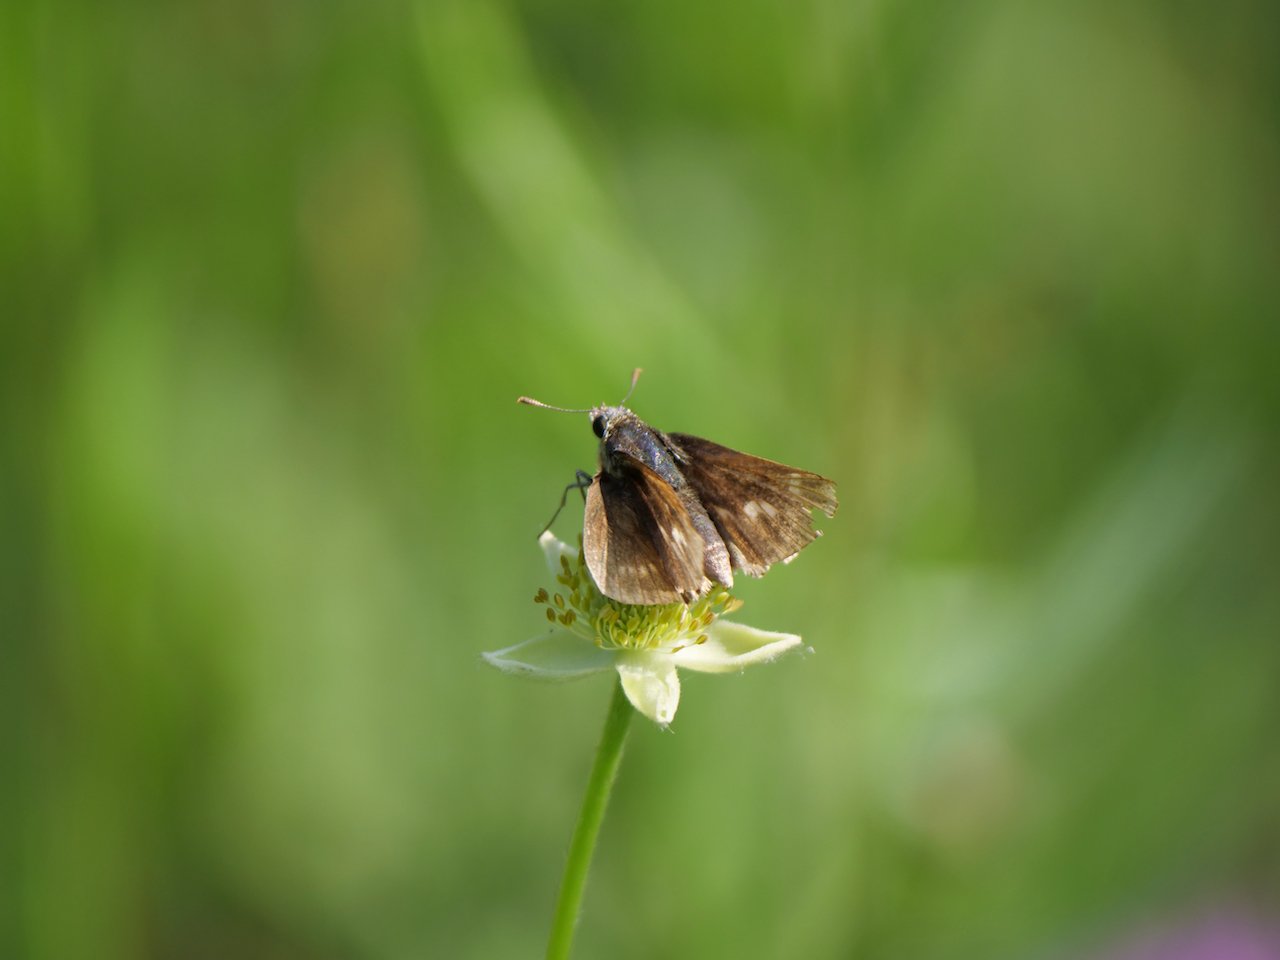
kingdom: Animalia
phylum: Arthropoda
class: Insecta
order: Lepidoptera
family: Hesperiidae
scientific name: Hesperiidae
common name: Skippers
